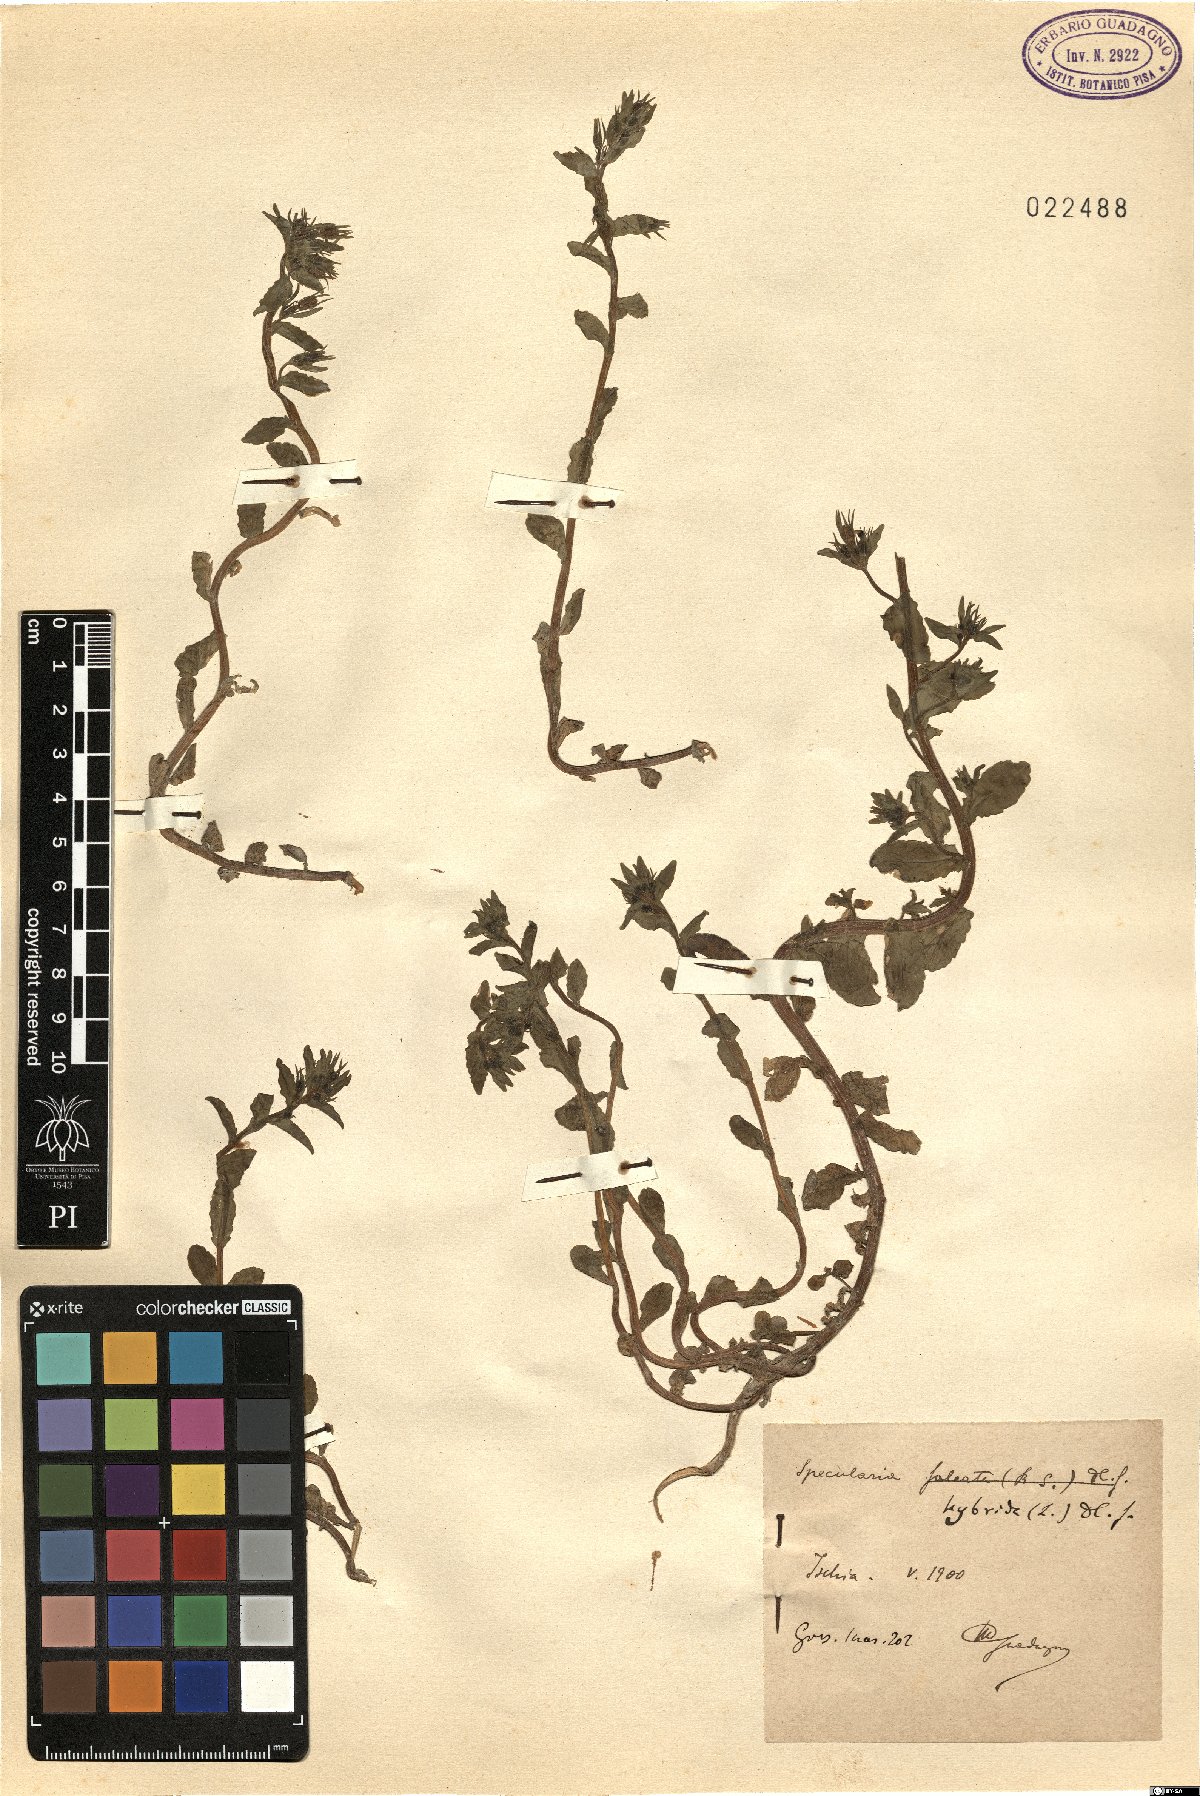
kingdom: Plantae
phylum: Tracheophyta
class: Magnoliopsida
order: Asterales
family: Campanulaceae
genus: Legousia
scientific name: Legousia hybrida
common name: Venus's-looking-glass
